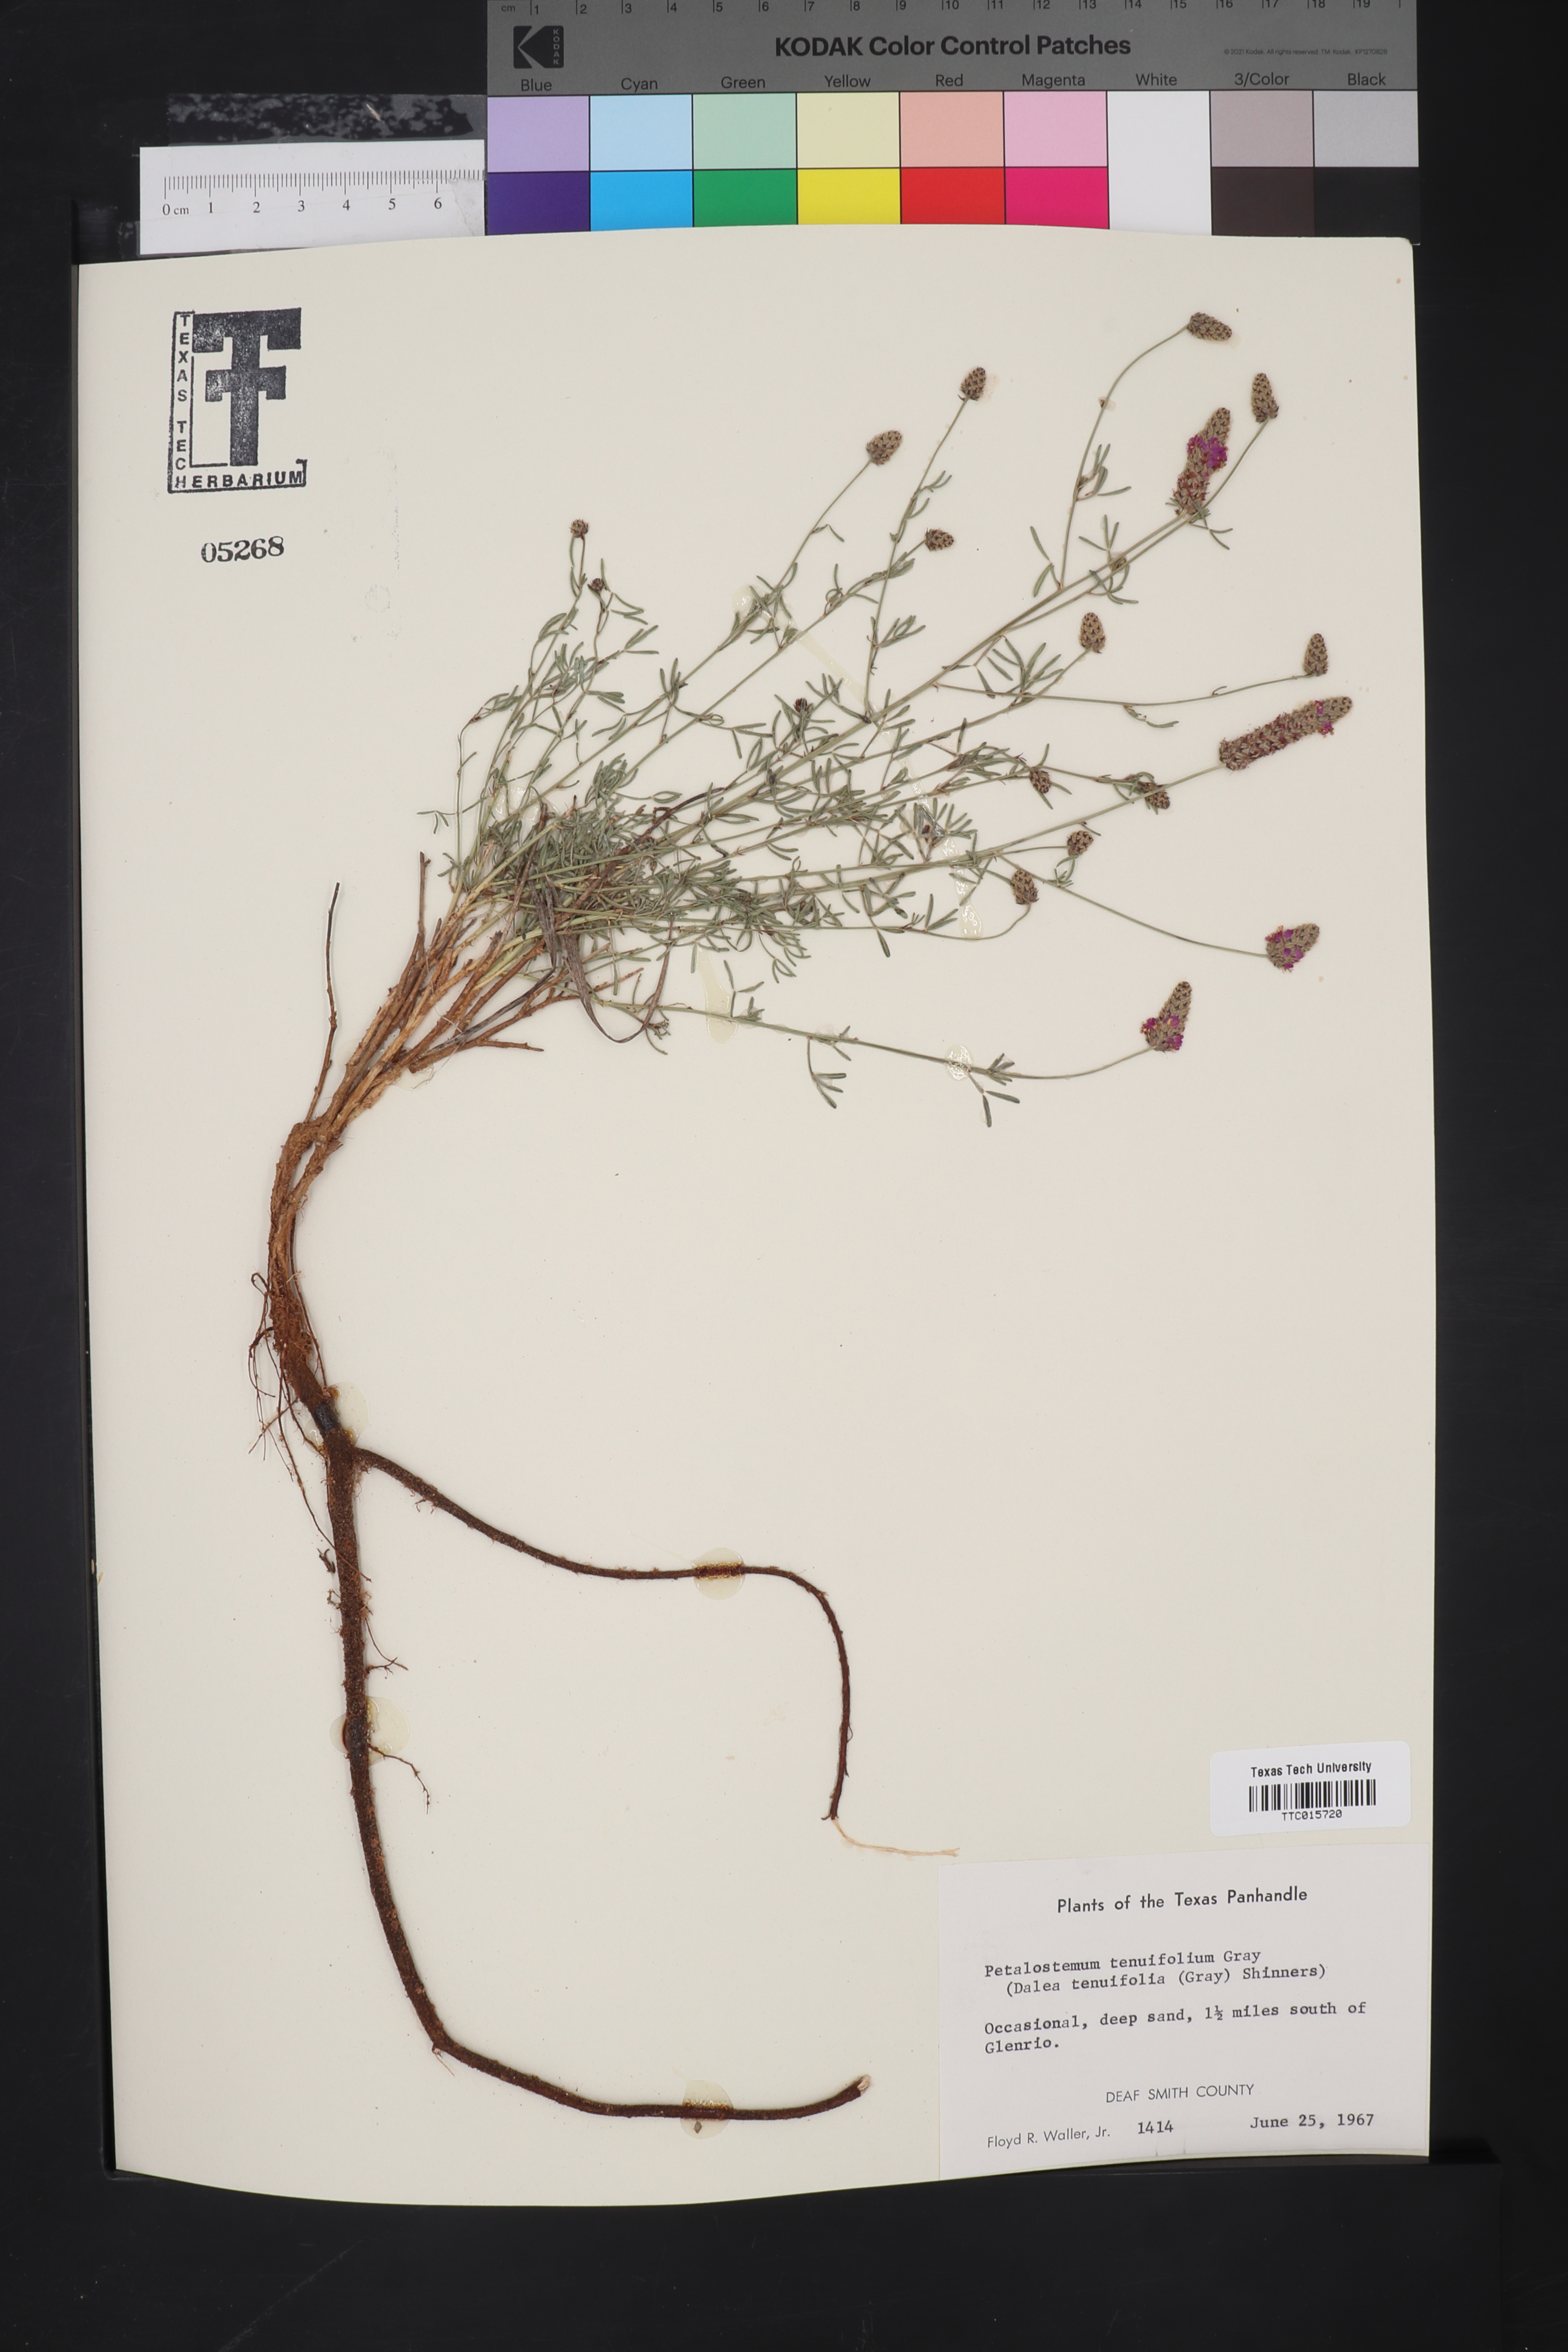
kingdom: Plantae
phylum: Tracheophyta
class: Magnoliopsida
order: Fabales
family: Fabaceae
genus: Petalostemum
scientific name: Petalostemum
